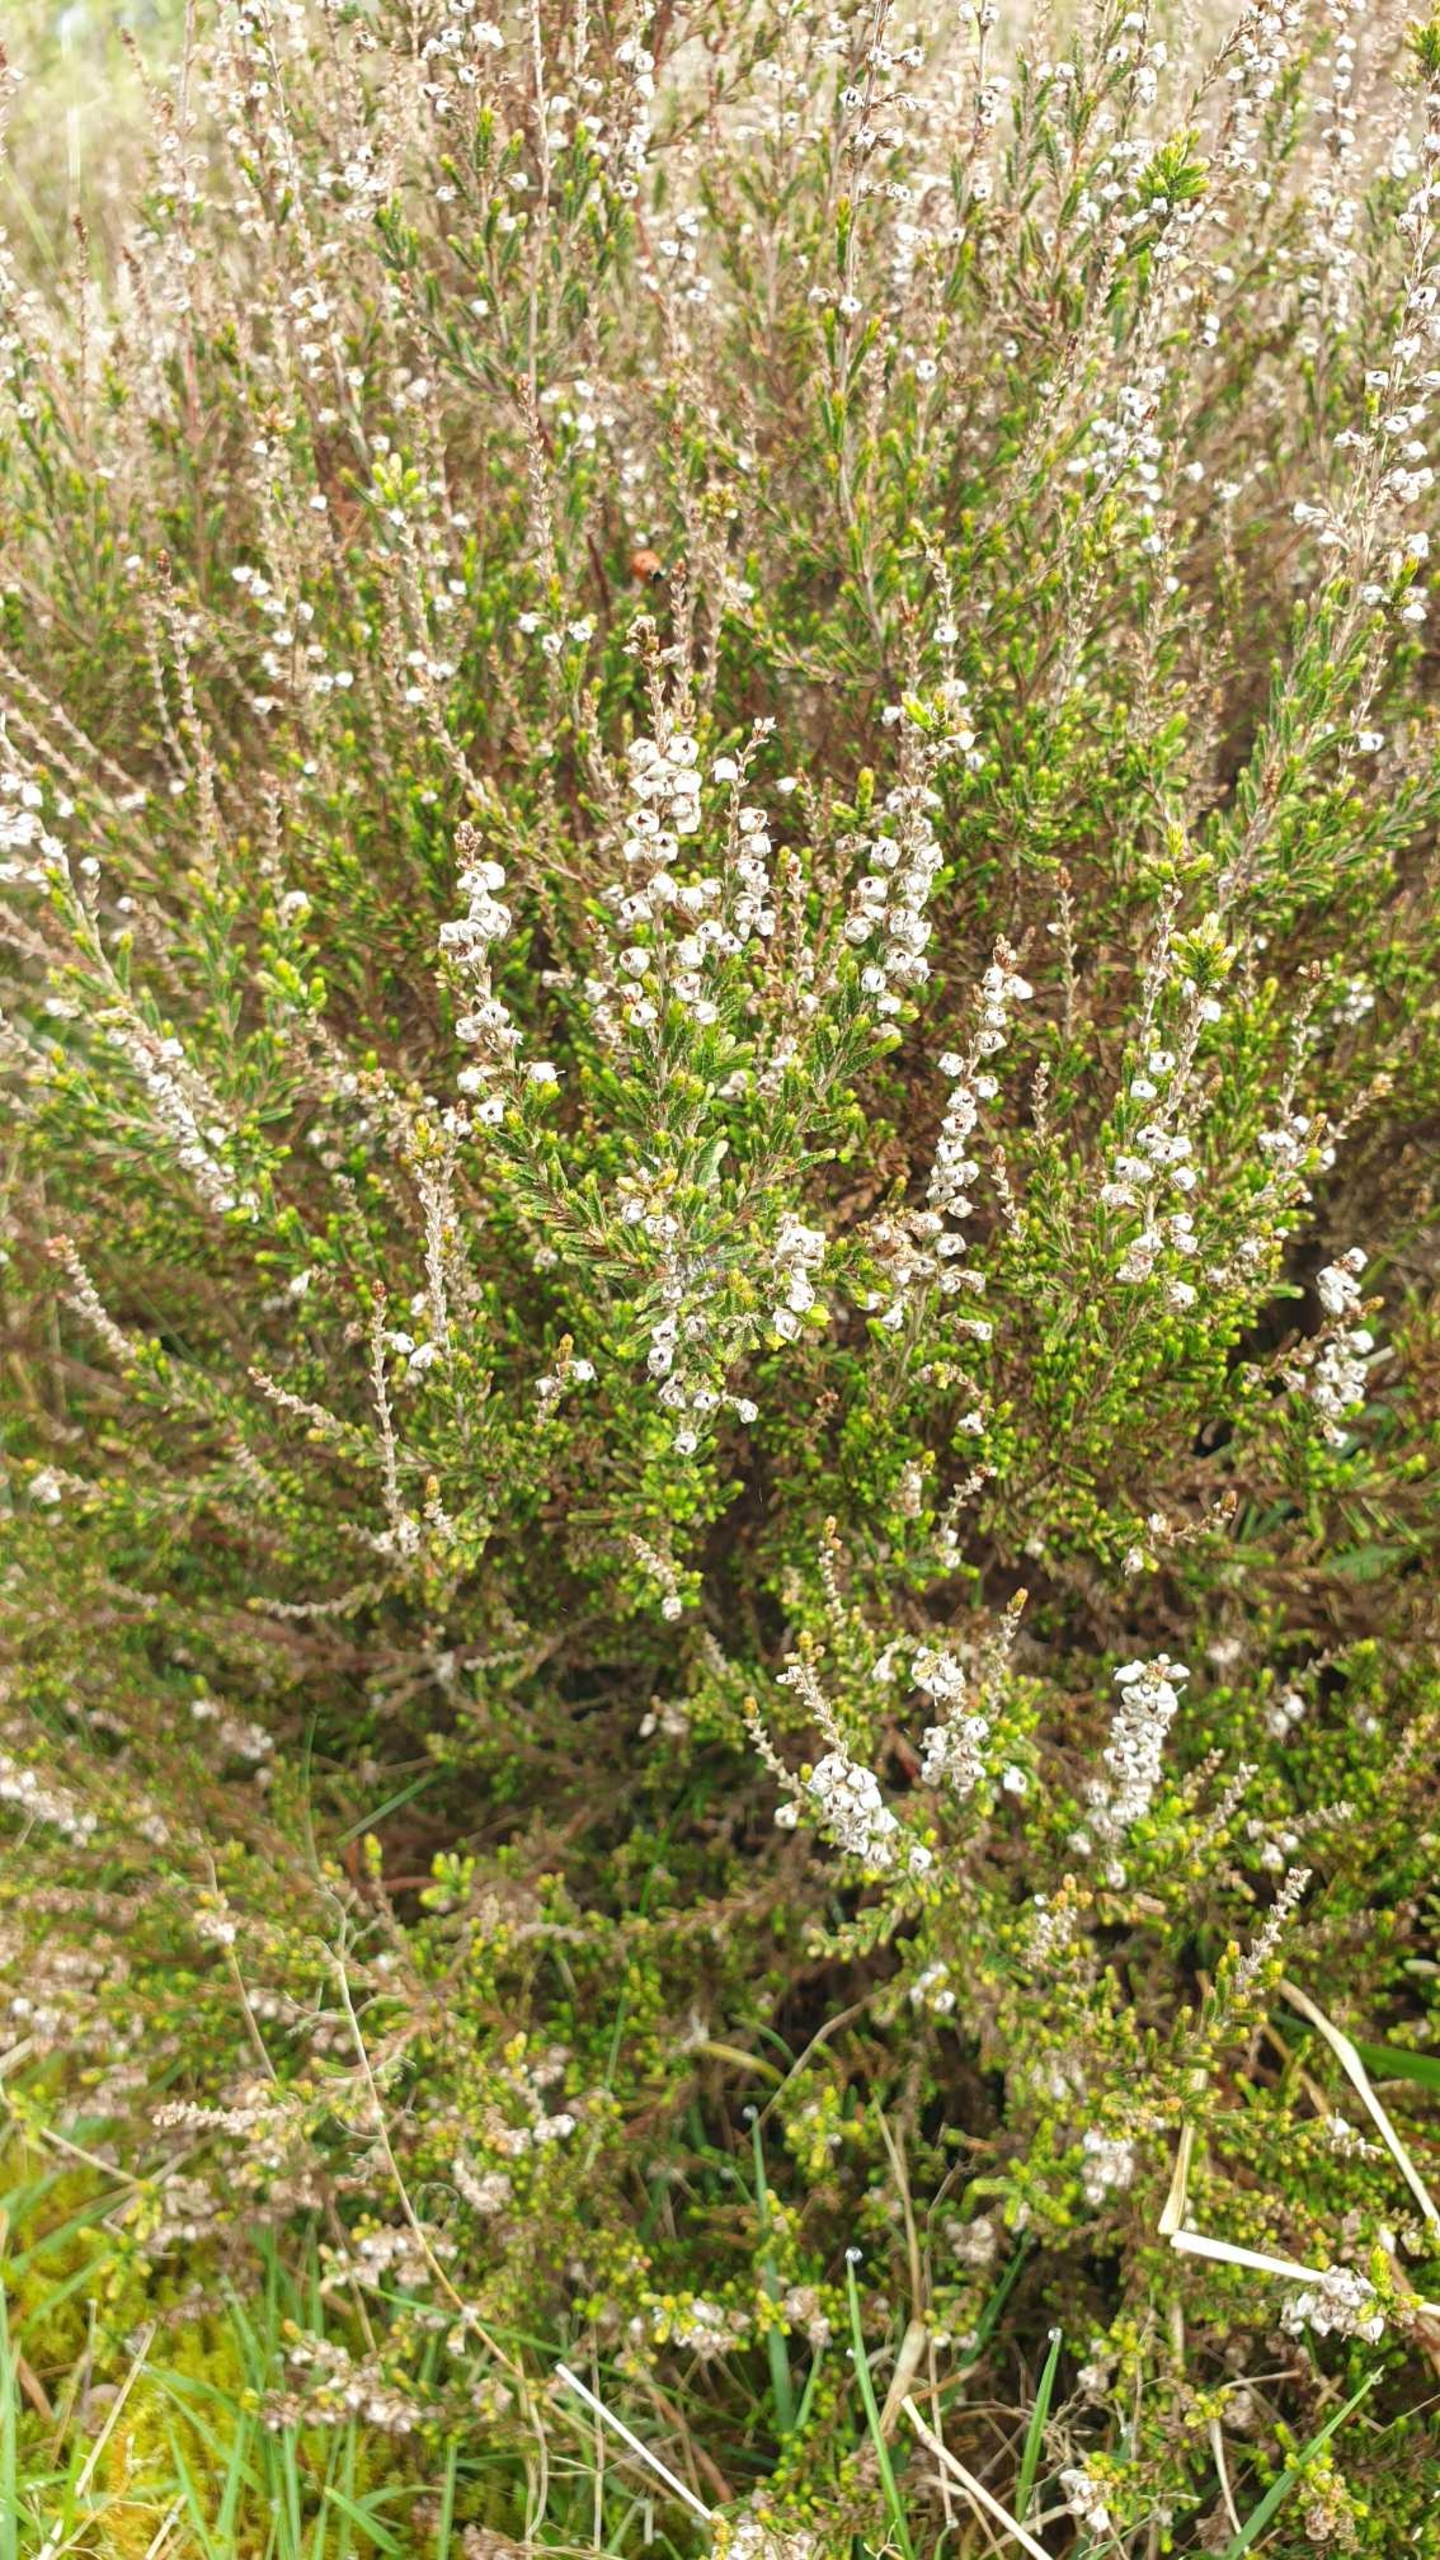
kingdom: Plantae
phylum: Tracheophyta
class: Magnoliopsida
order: Ericales
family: Ericaceae
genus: Calluna
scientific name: Calluna vulgaris
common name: Hedelyng
